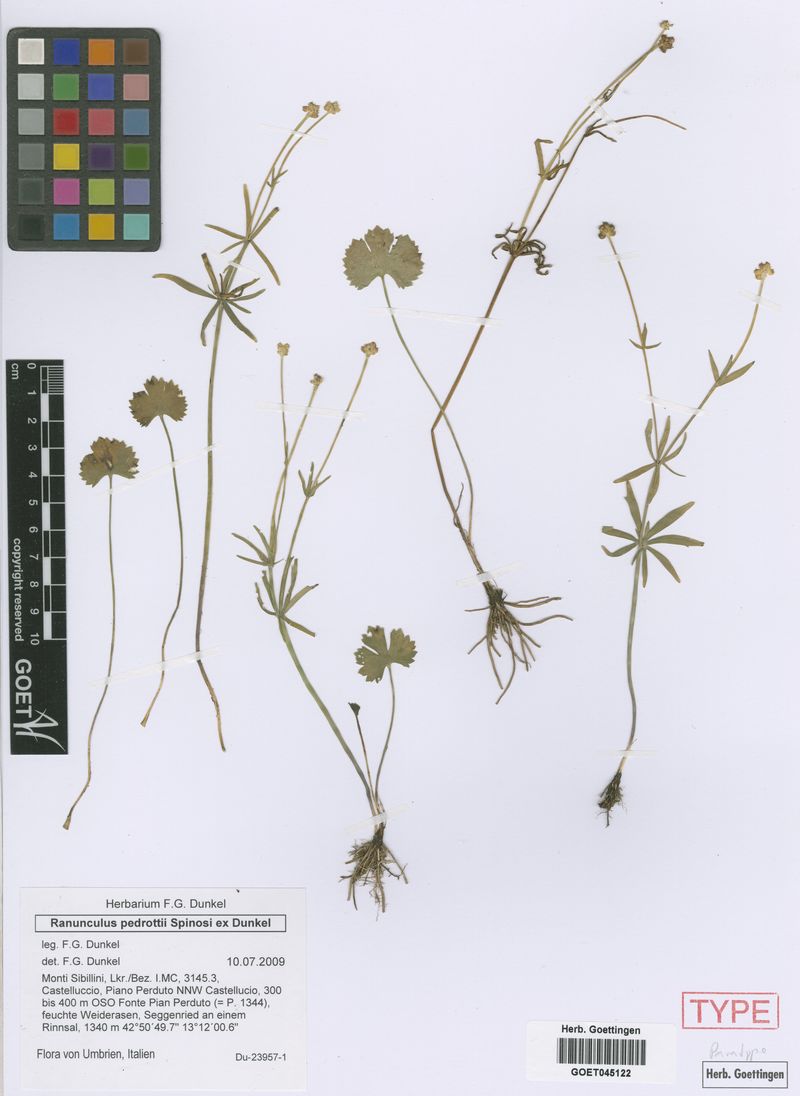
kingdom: Plantae
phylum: Tracheophyta
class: Magnoliopsida
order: Ranunculales
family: Ranunculaceae
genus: Ranunculus
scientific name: Ranunculus pedrottii
